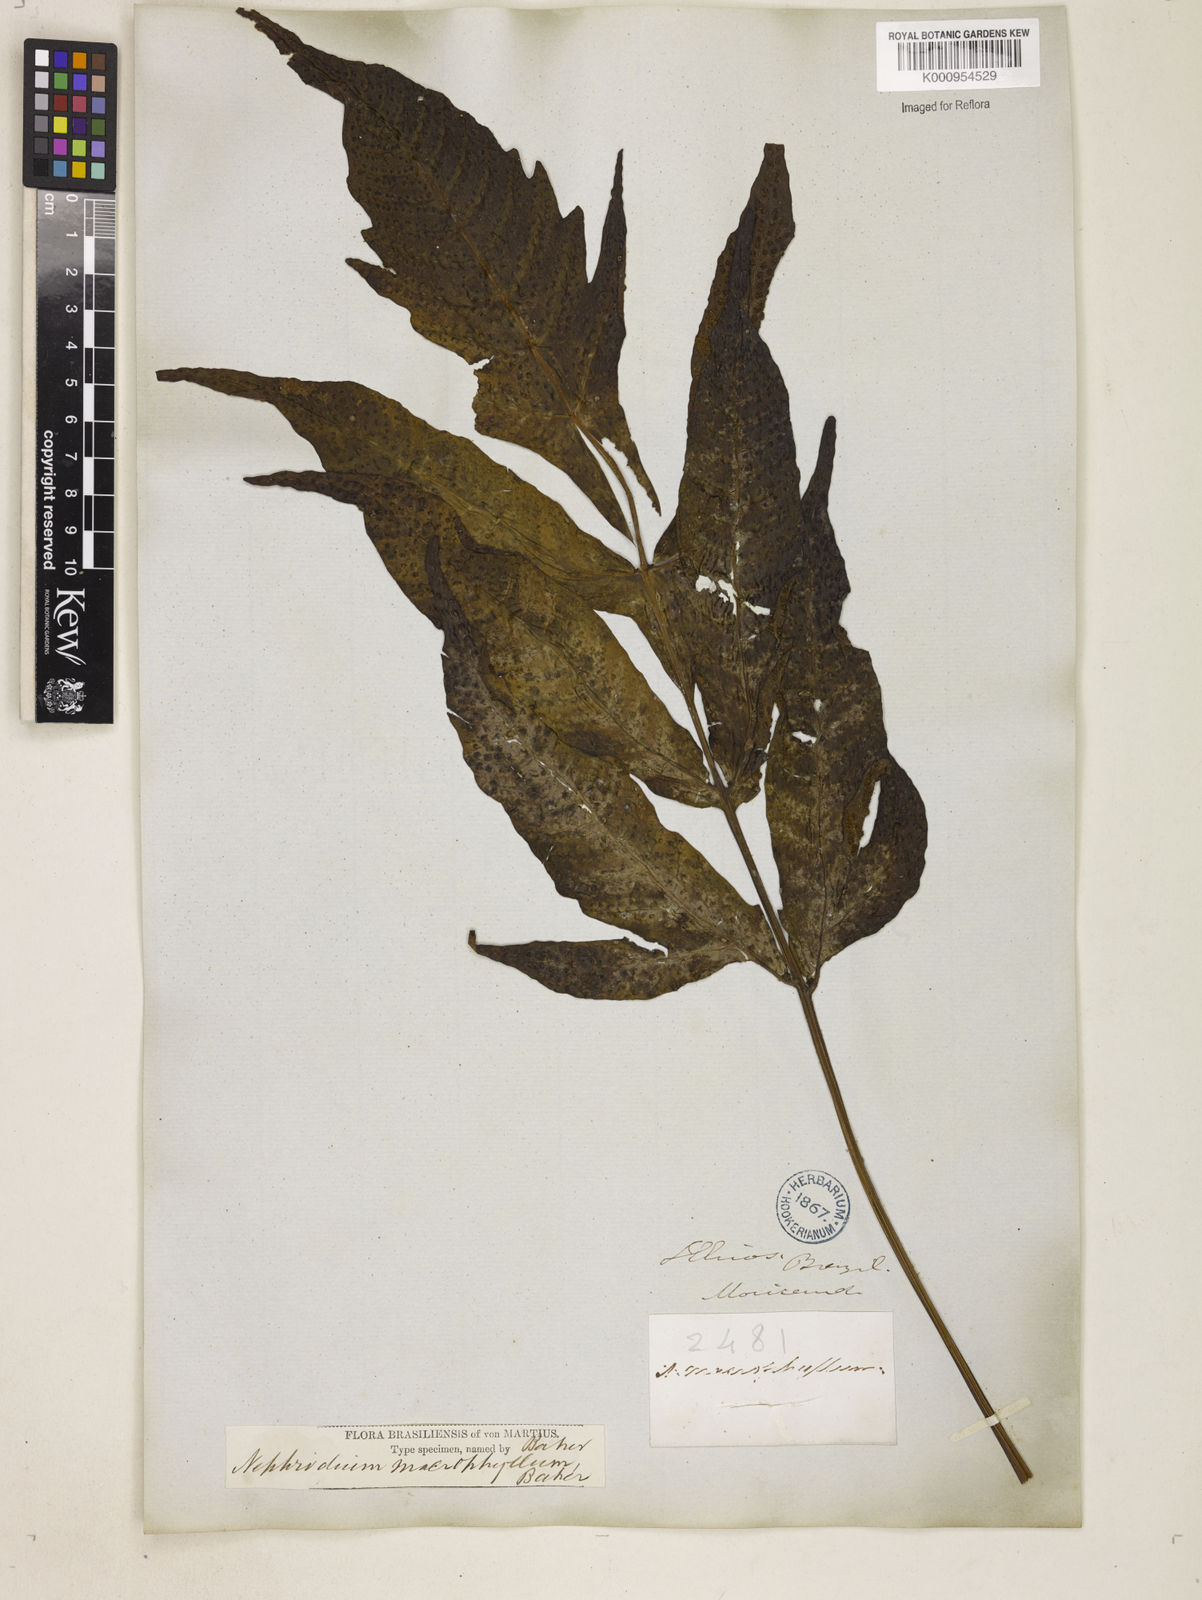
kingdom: Plantae
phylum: Tracheophyta
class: Polypodiopsida
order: Polypodiales
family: Tectariaceae
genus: Tectaria
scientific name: Tectaria incisa
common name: Incised halberd fern
